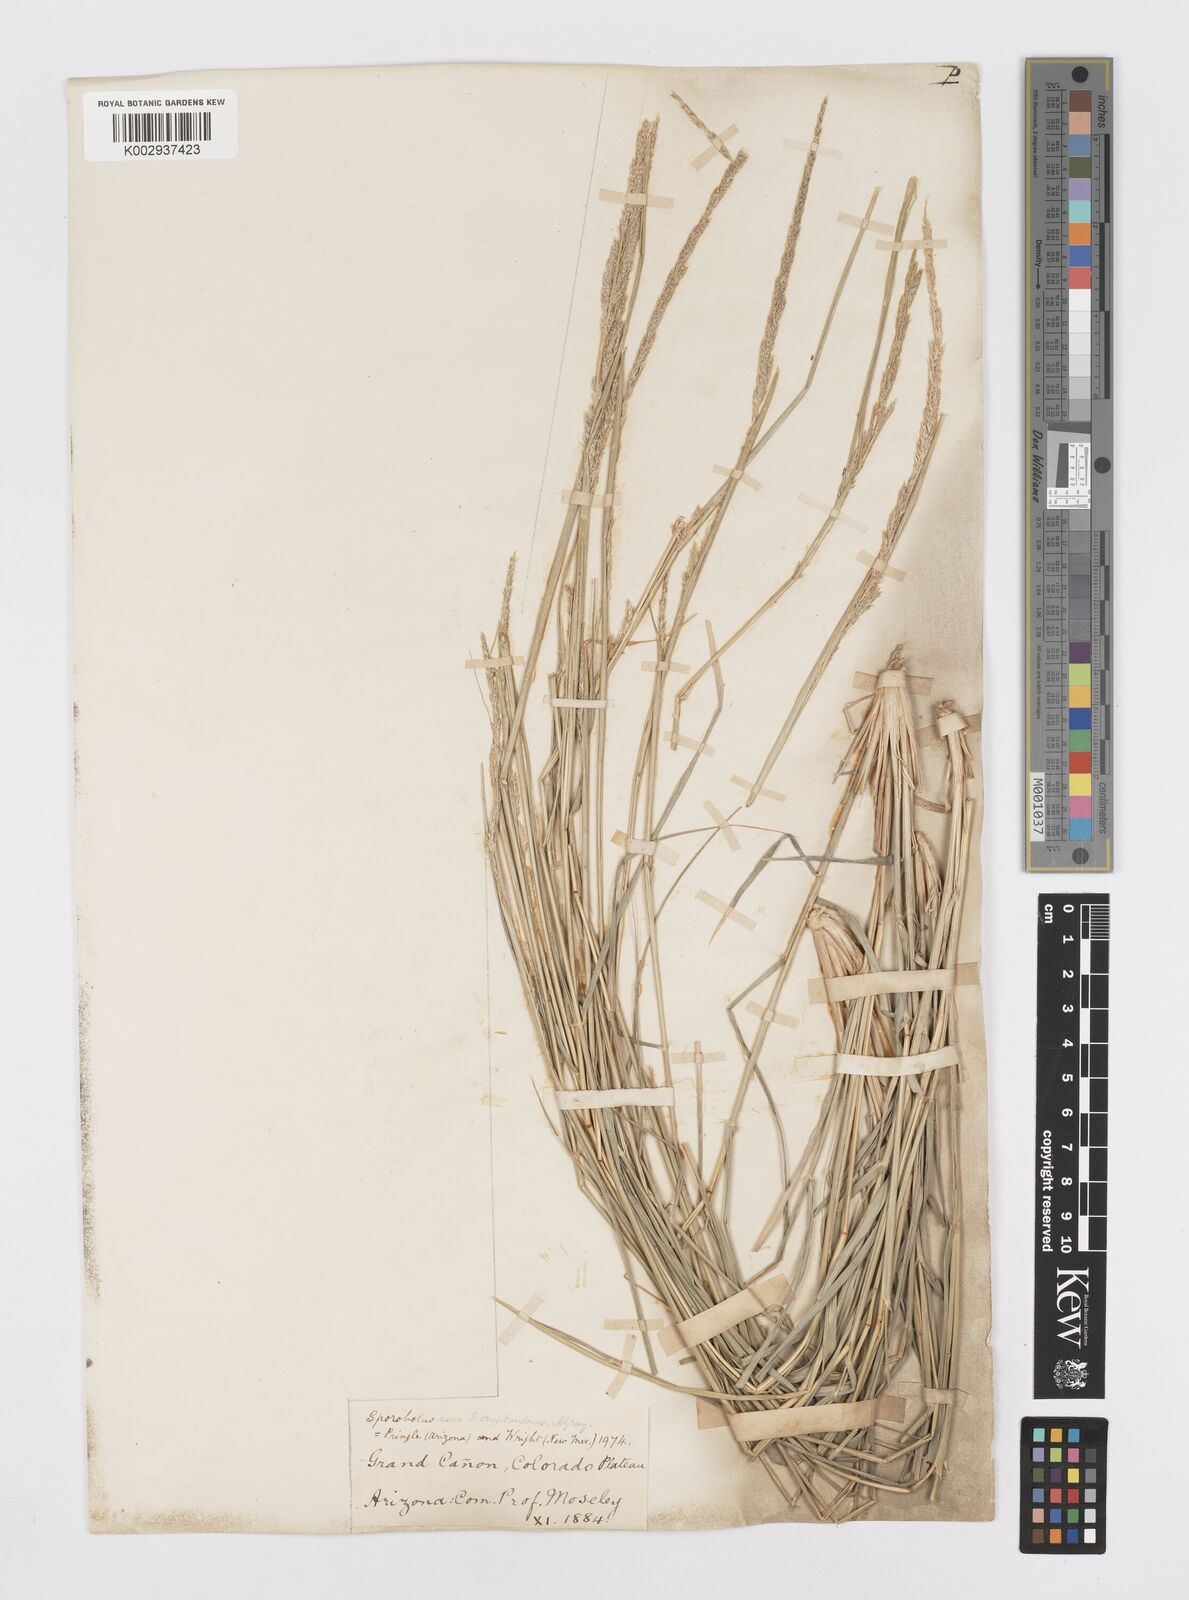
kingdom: Plantae
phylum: Tracheophyta
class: Liliopsida
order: Poales
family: Poaceae
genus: Sporobolus
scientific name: Sporobolus contractus
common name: Spike dropseed
